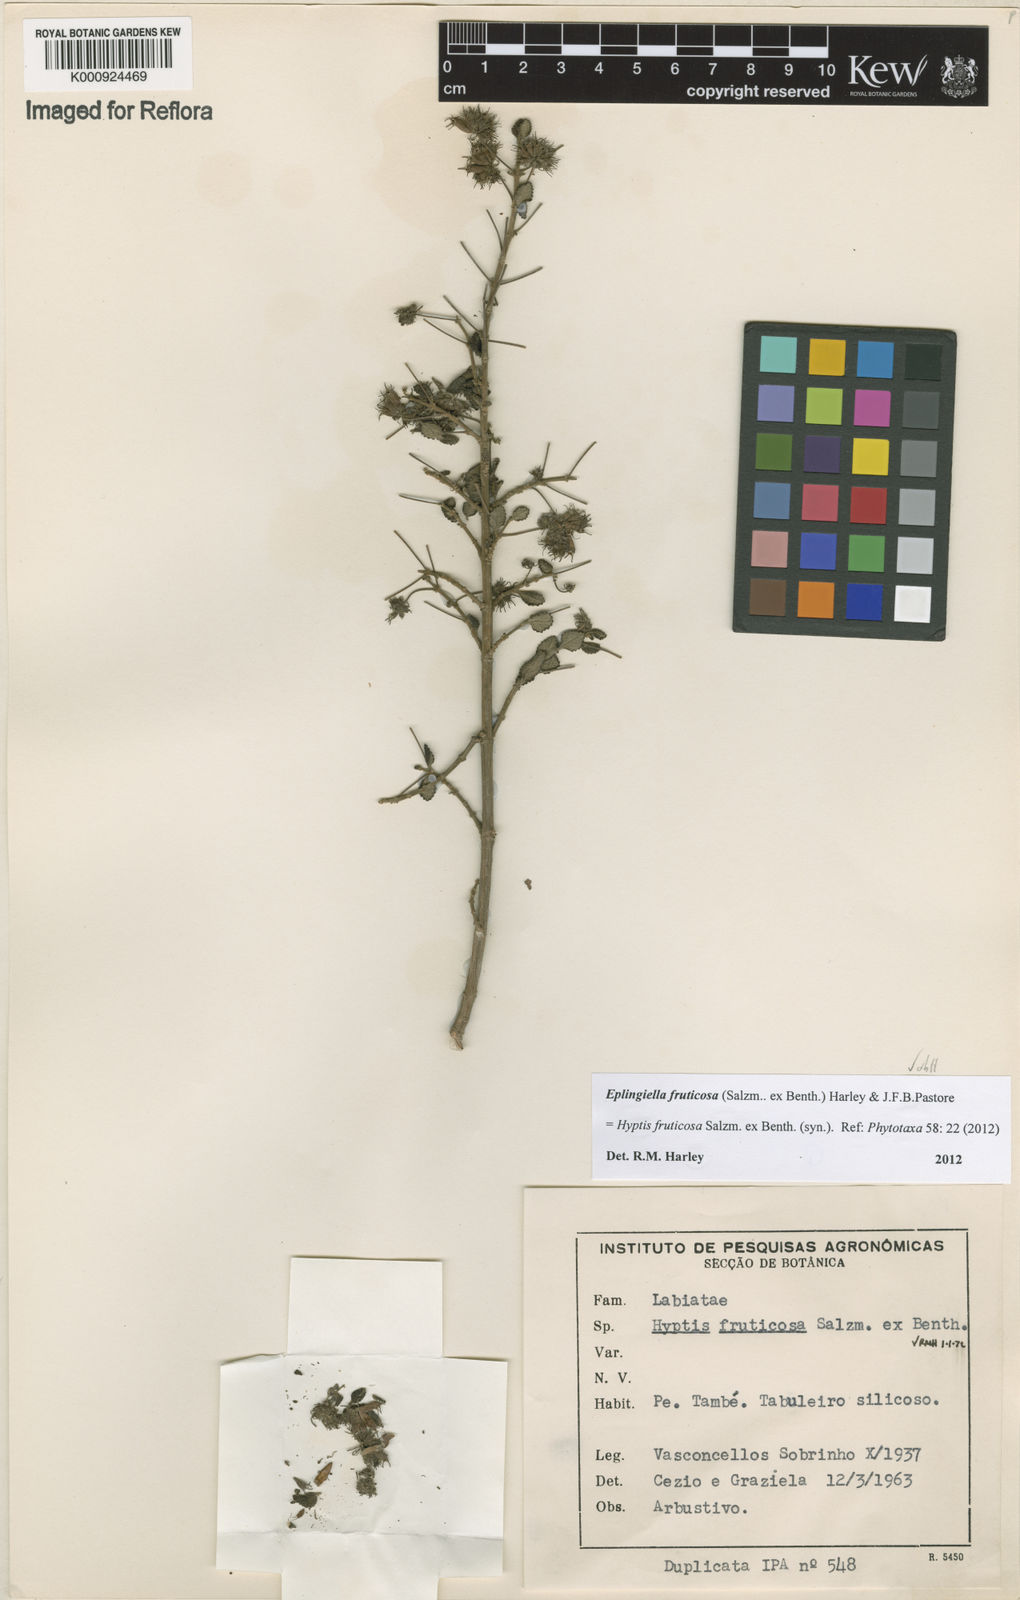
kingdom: Plantae
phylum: Tracheophyta
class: Magnoliopsida
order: Lamiales
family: Lamiaceae
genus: Eplingiella
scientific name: Eplingiella fruticosa
